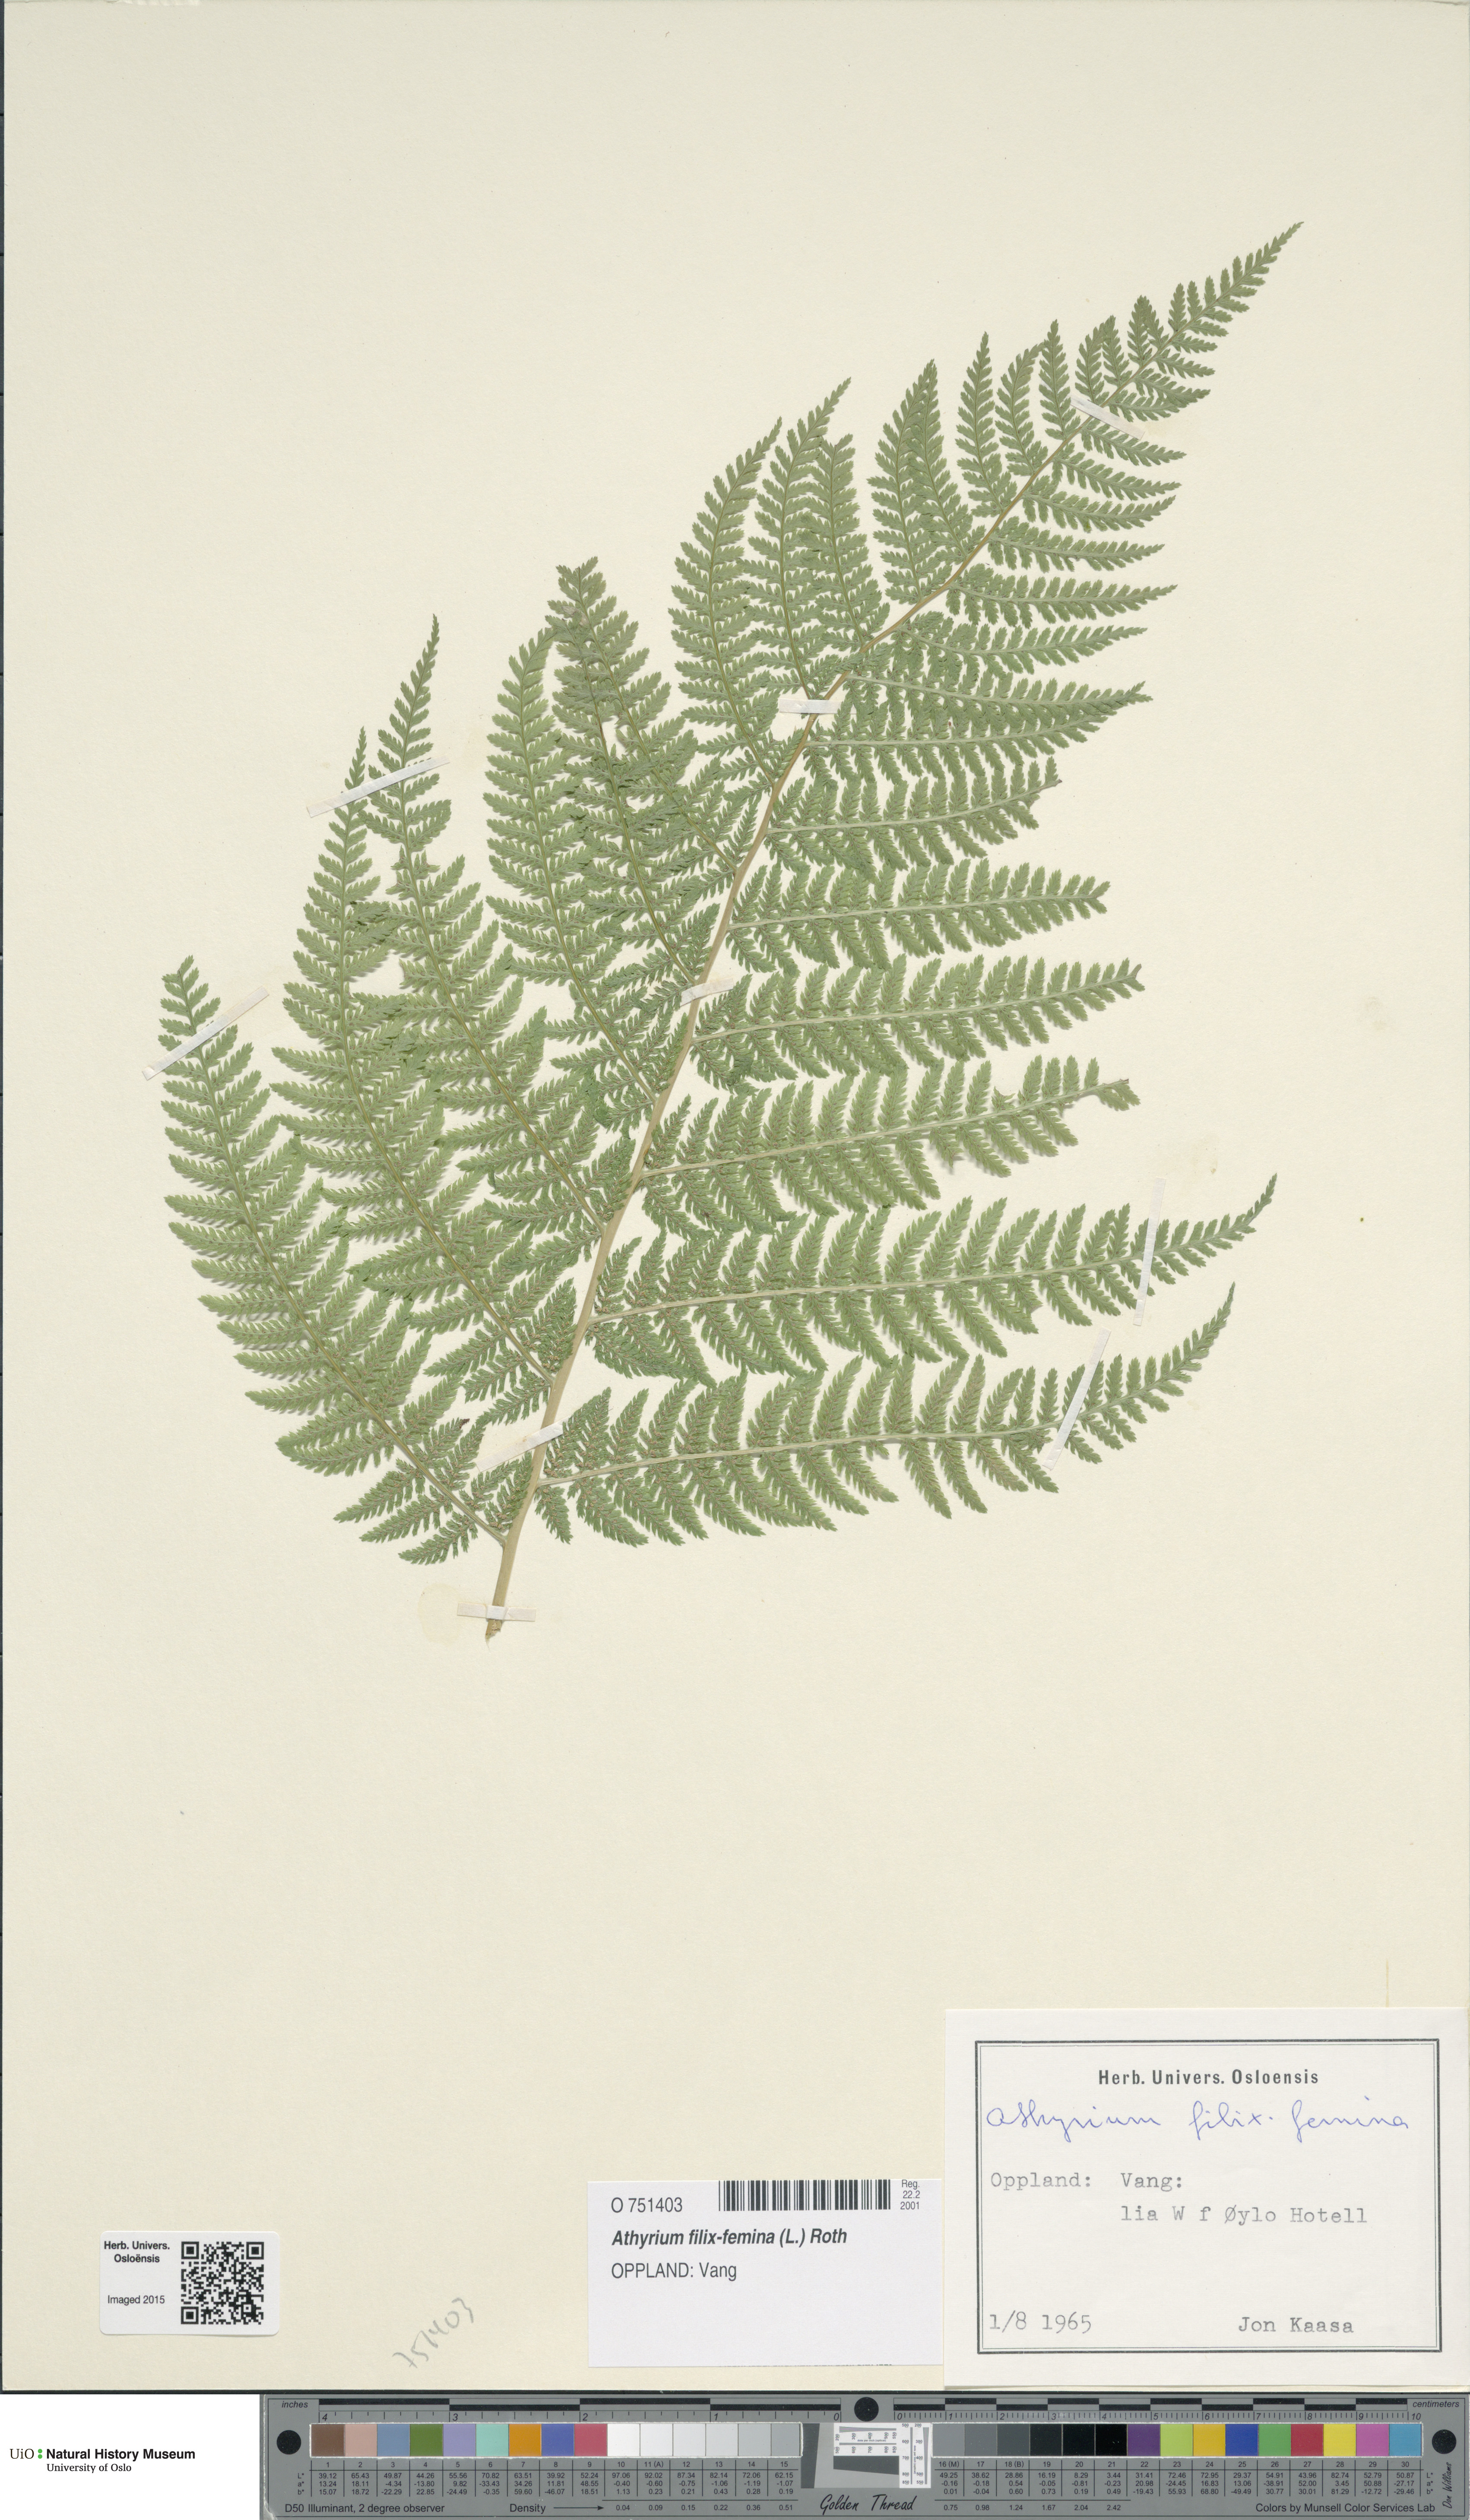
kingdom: Plantae
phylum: Tracheophyta
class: Polypodiopsida
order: Polypodiales
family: Athyriaceae
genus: Athyrium
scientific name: Athyrium filix-femina
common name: Lady fern
